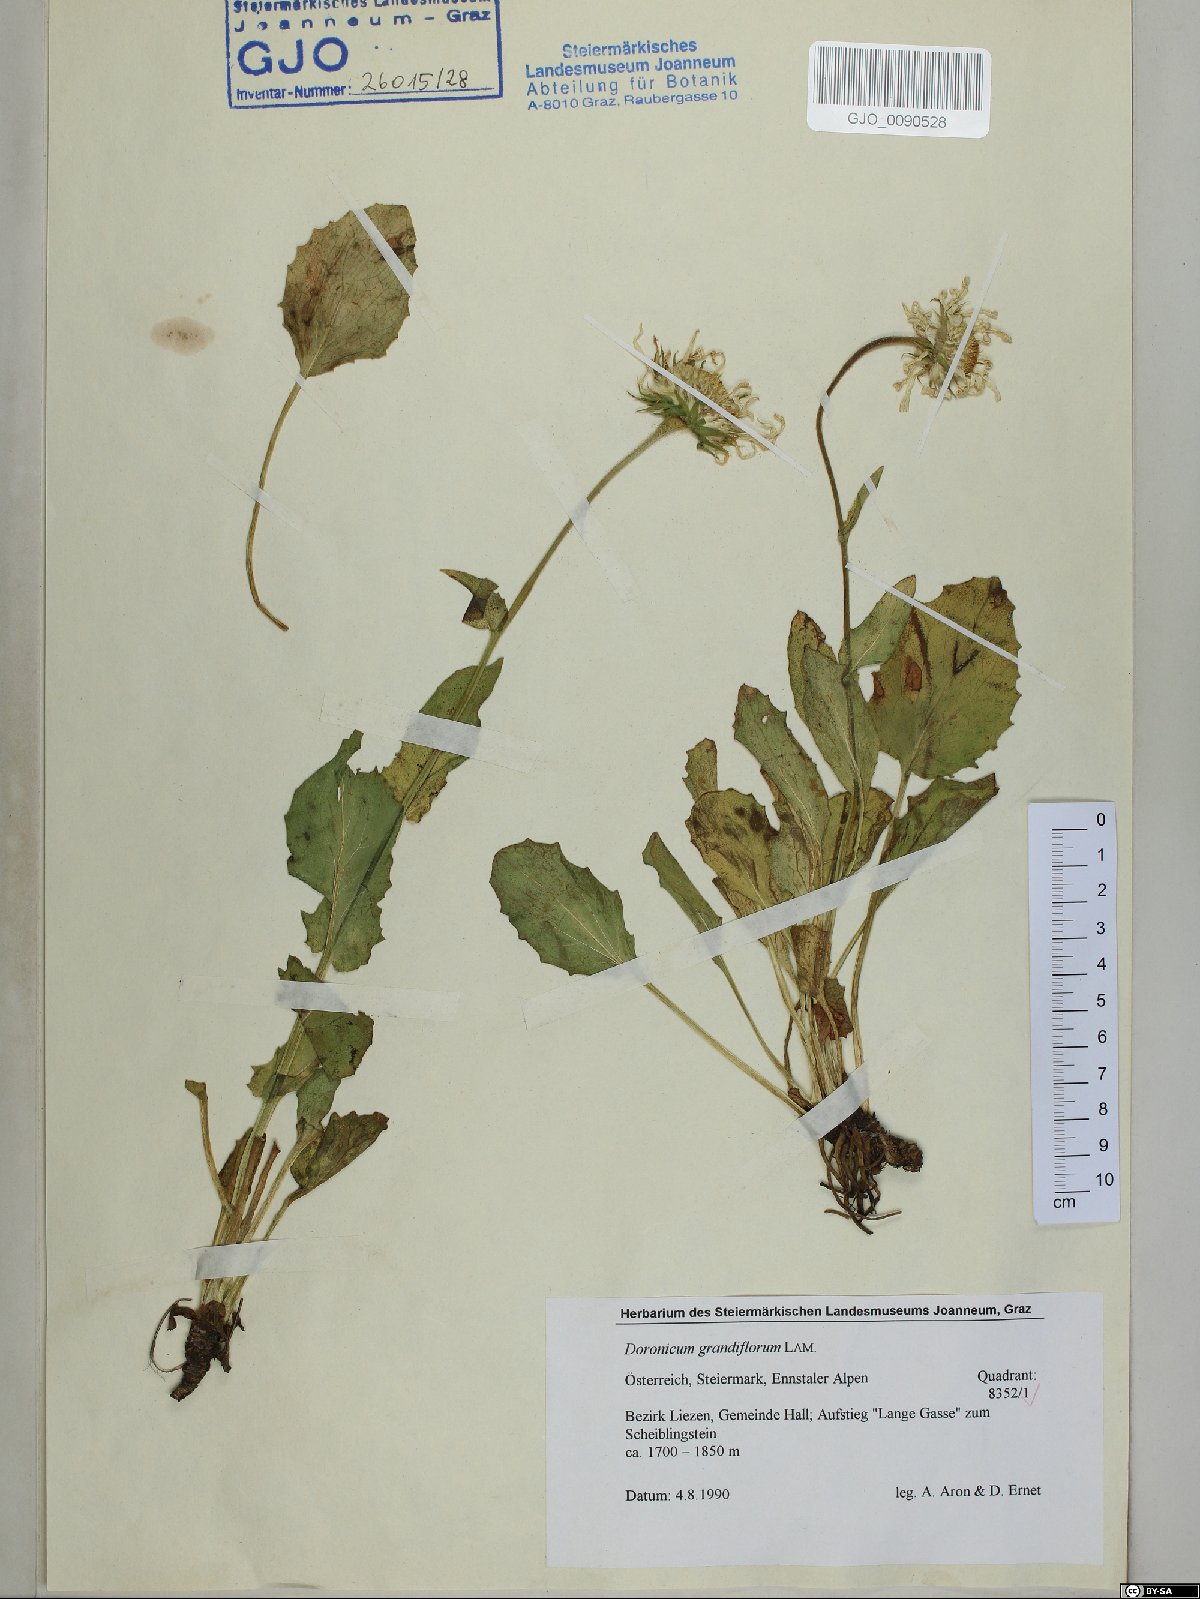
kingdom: Plantae
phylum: Tracheophyta
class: Magnoliopsida
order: Asterales
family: Asteraceae
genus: Doronicum
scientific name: Doronicum grandiflorum
